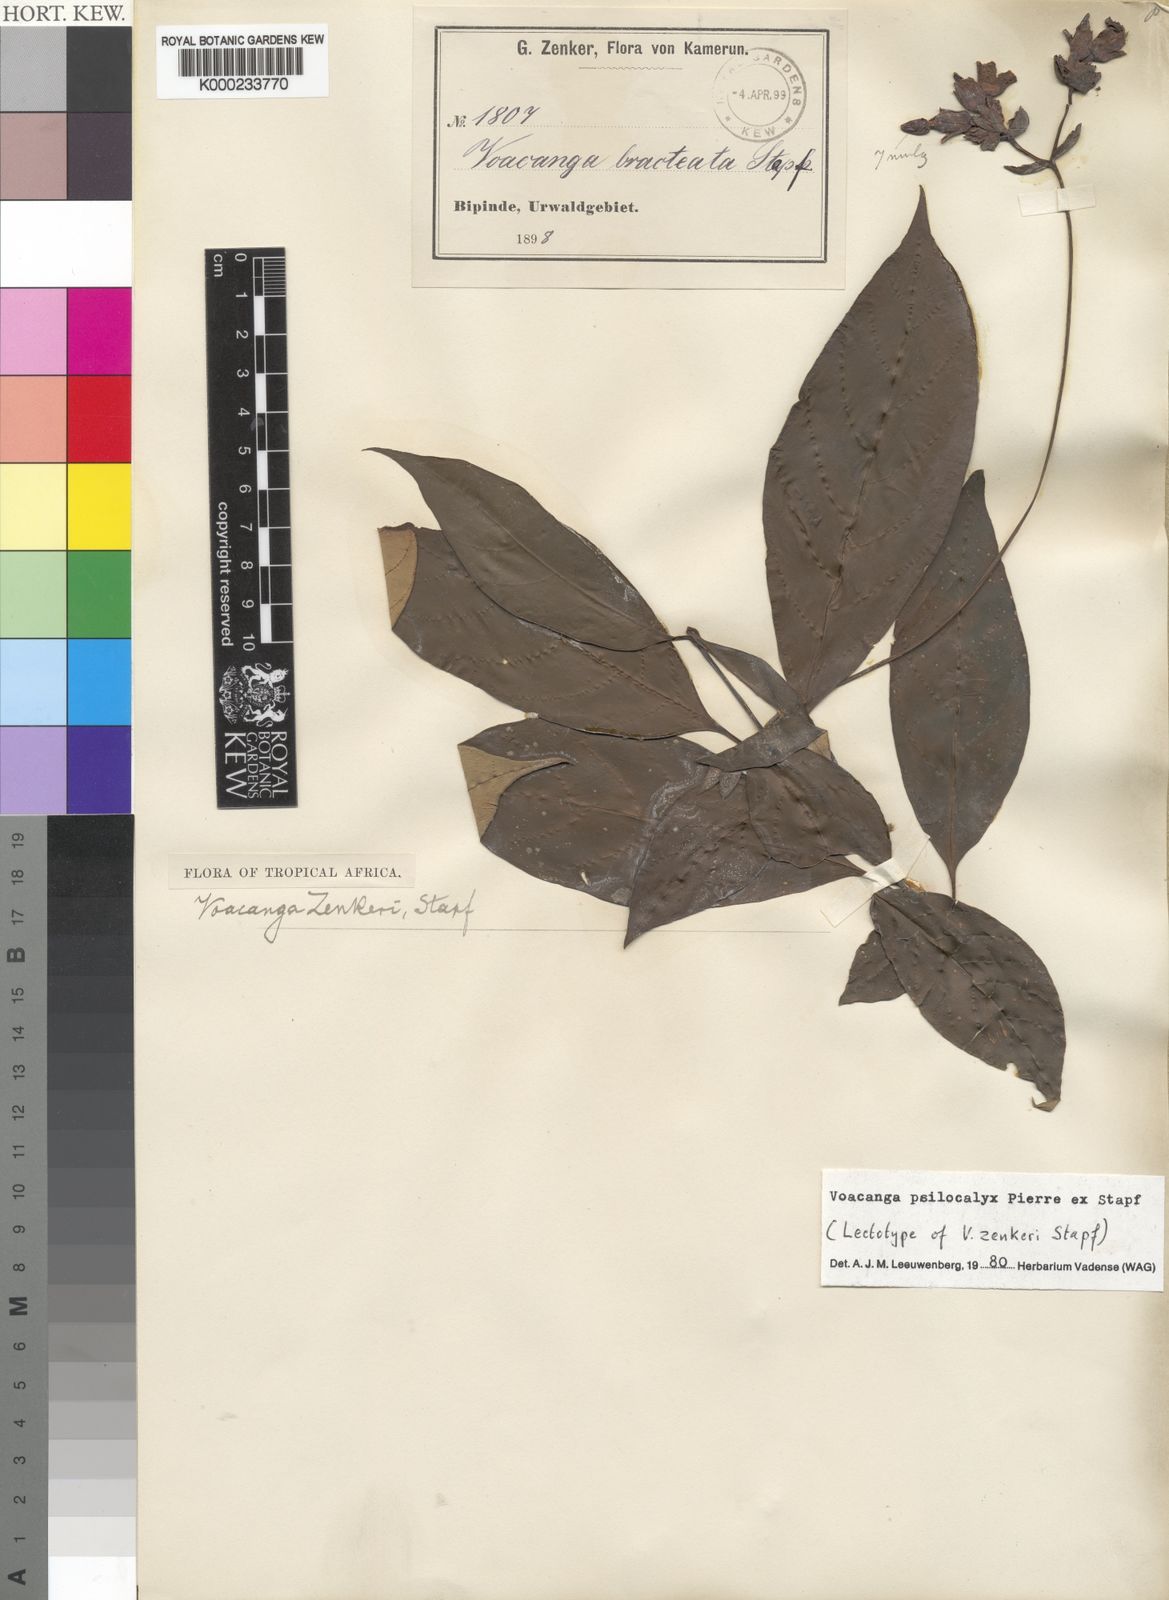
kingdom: Plantae
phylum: Tracheophyta
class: Magnoliopsida
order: Gentianales
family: Apocynaceae
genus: Voacanga
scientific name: Voacanga psilocalyx
